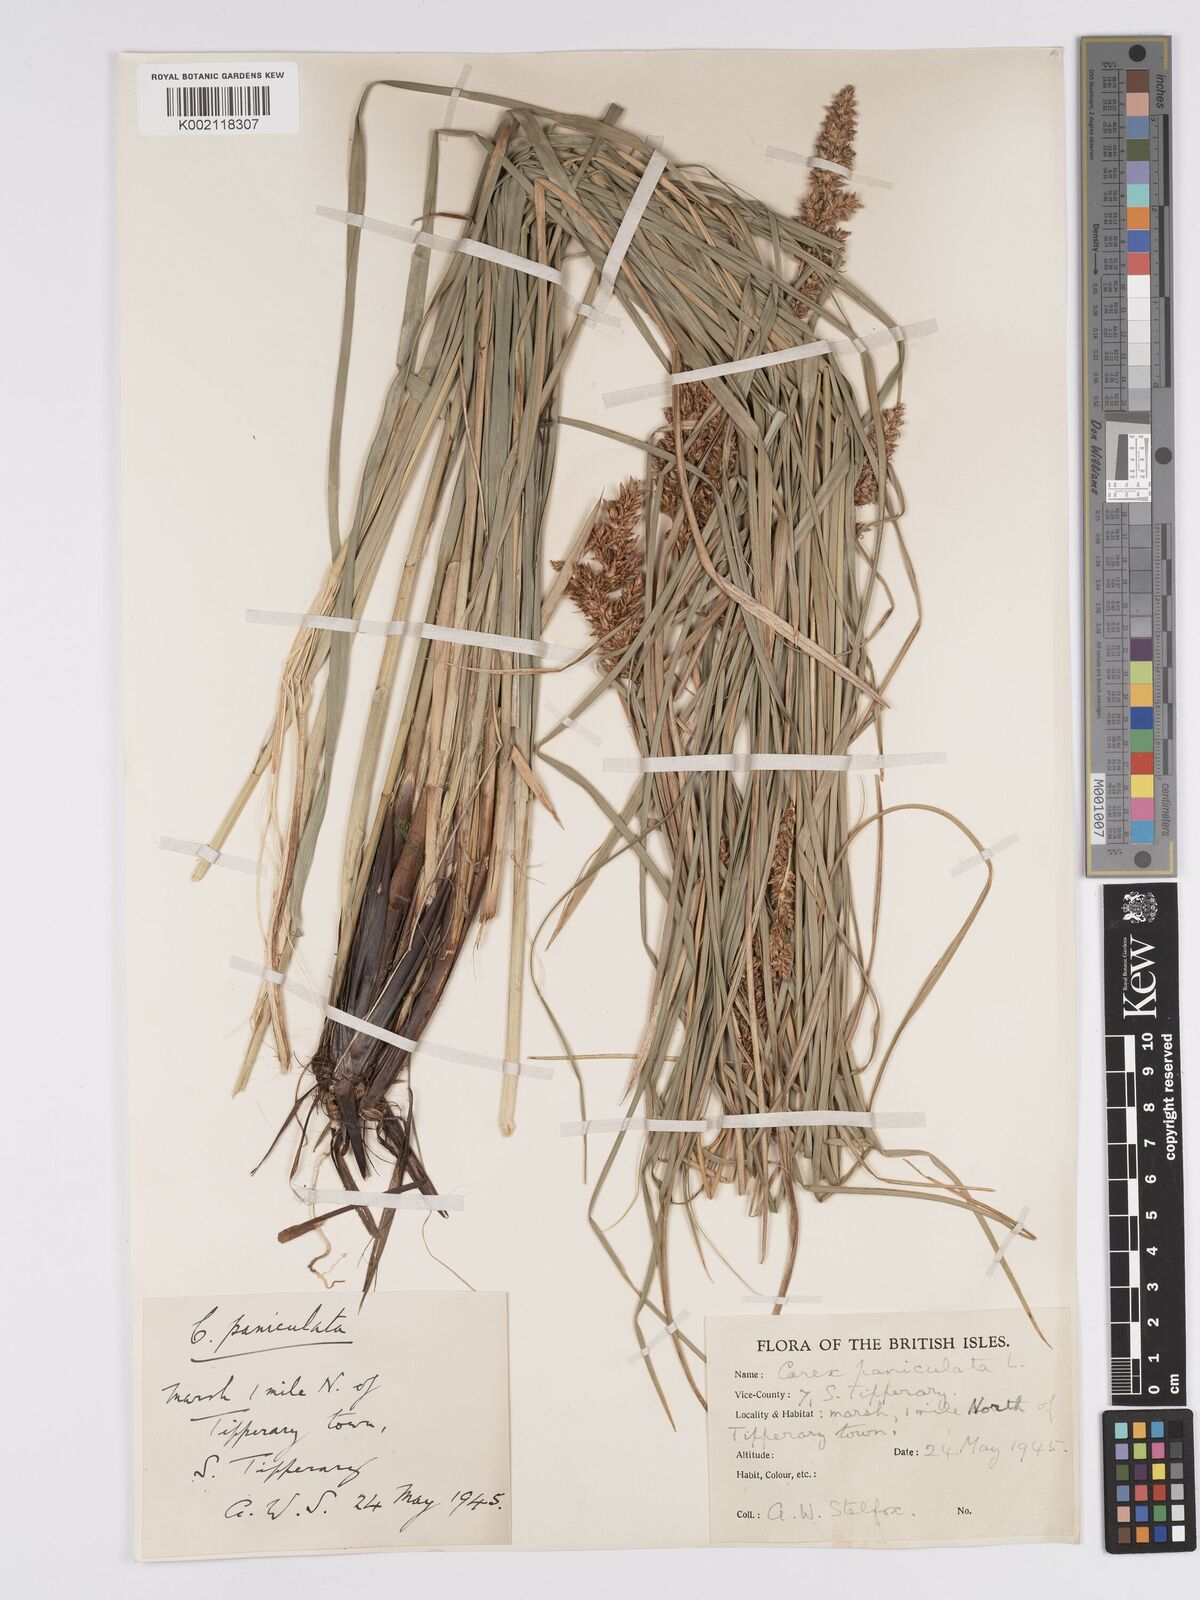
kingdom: Plantae
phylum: Tracheophyta
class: Liliopsida
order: Poales
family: Cyperaceae
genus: Carex
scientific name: Carex paniculata
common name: Greater tussock-sedge
